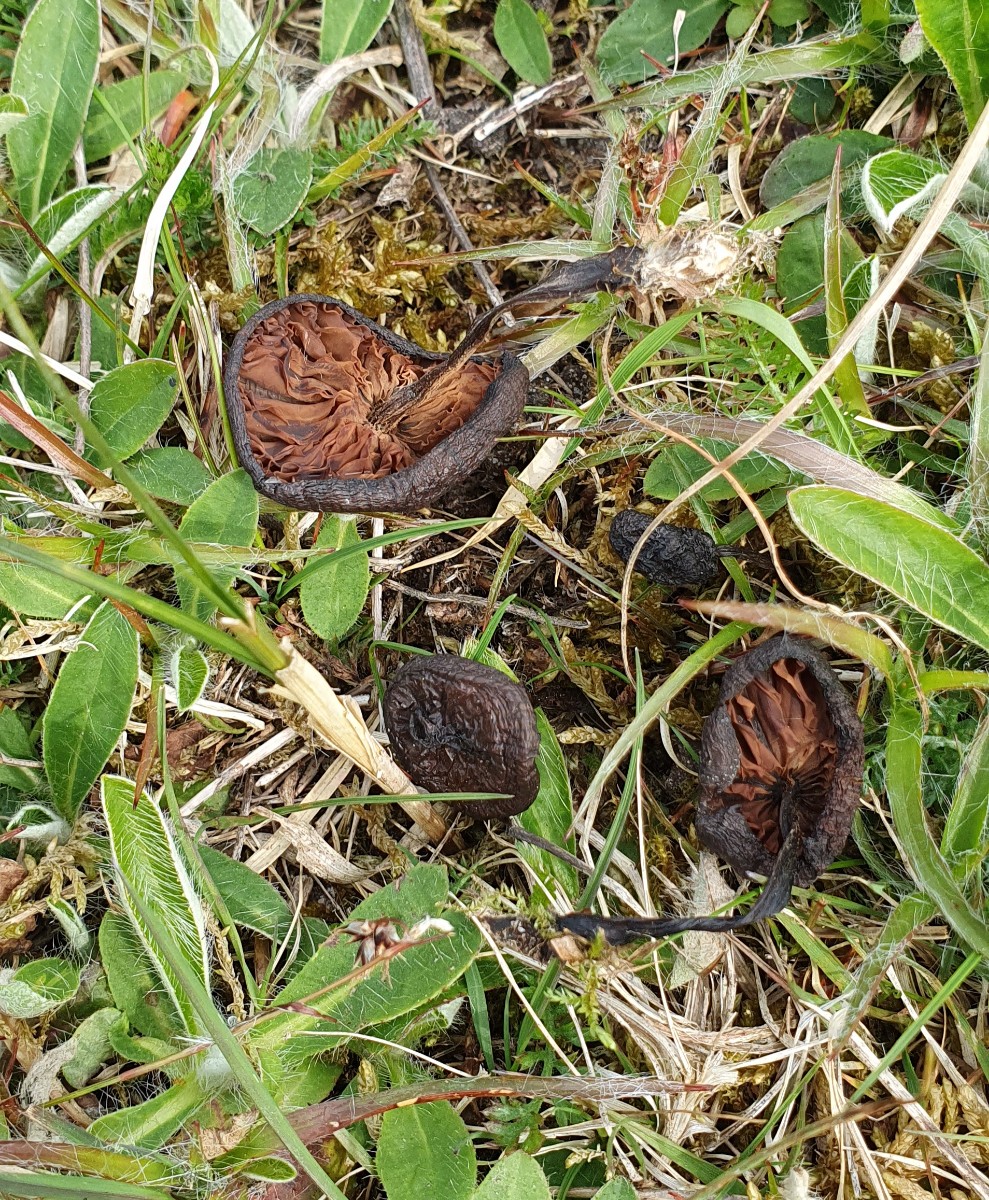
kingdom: Fungi
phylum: Basidiomycota
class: Agaricomycetes
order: Agaricales
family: Entolomataceae
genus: Entoloma
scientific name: Entoloma
